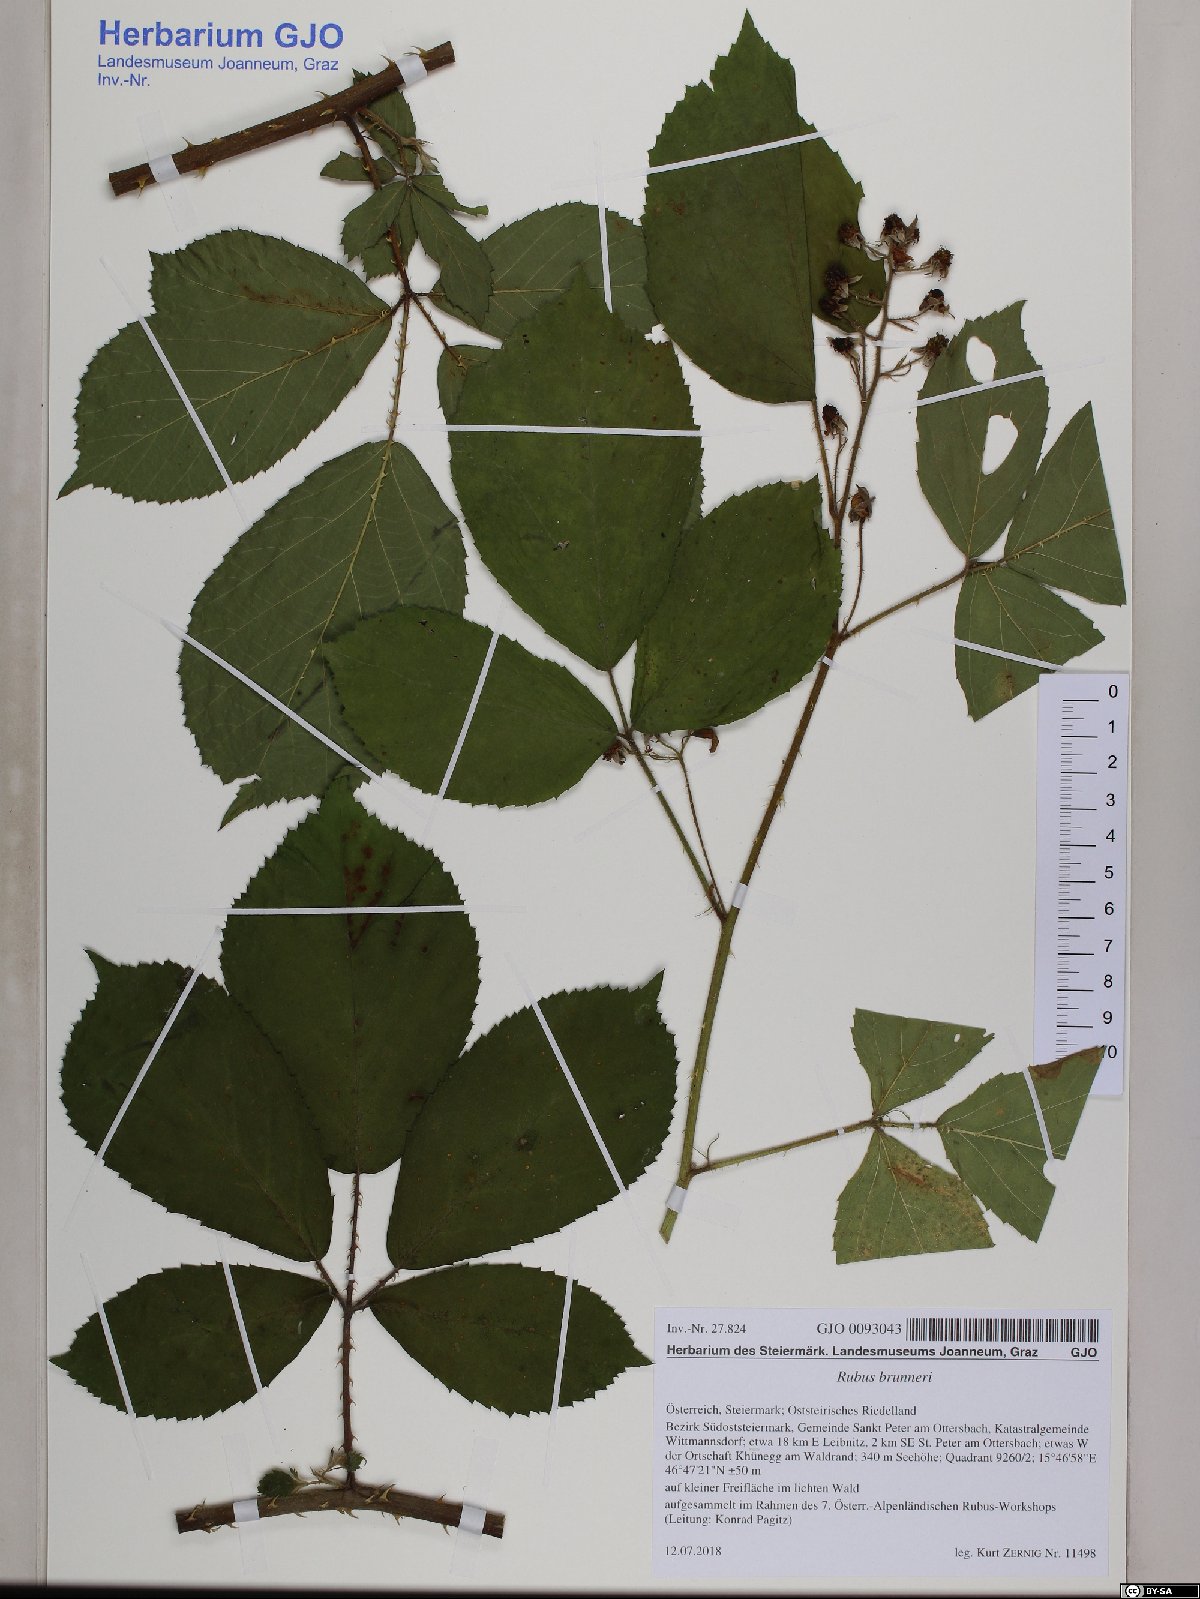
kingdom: Plantae
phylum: Tracheophyta
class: Magnoliopsida
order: Rosales
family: Rosaceae
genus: Rubus
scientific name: Rubus brunneri
